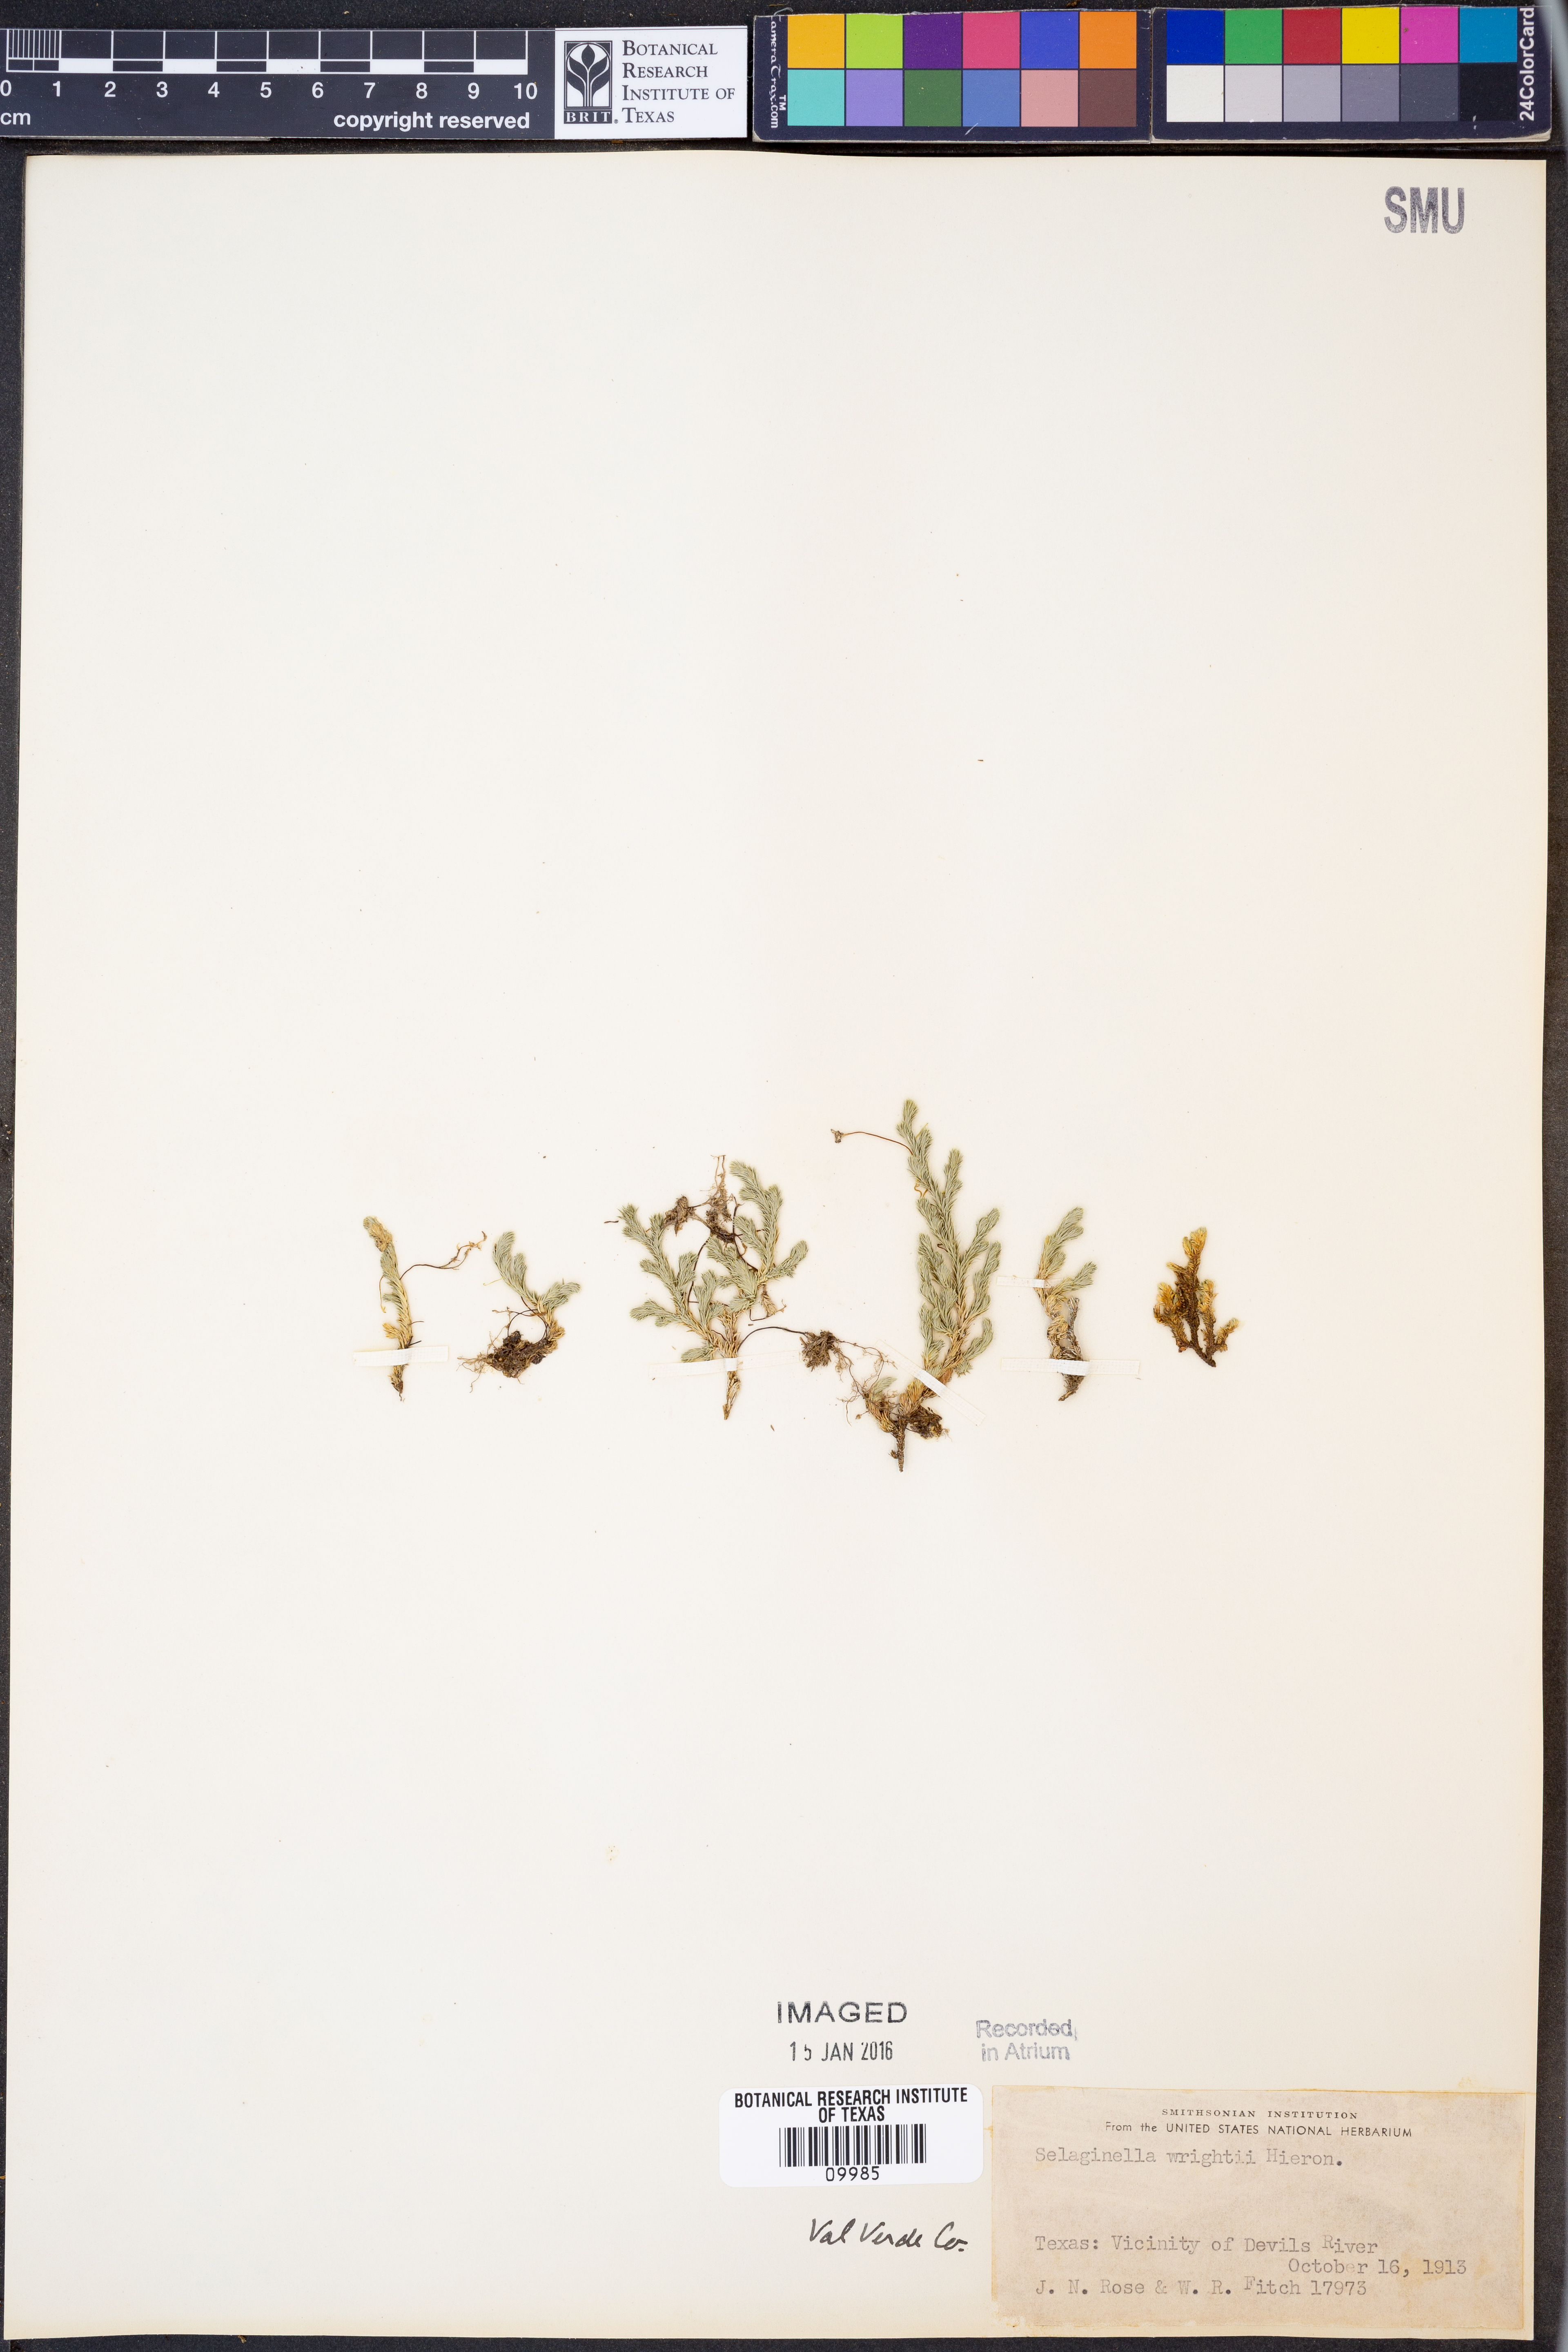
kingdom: Plantae
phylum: Tracheophyta
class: Lycopodiopsida
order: Selaginellales
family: Selaginellaceae
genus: Selaginella
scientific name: Selaginella wrightii
